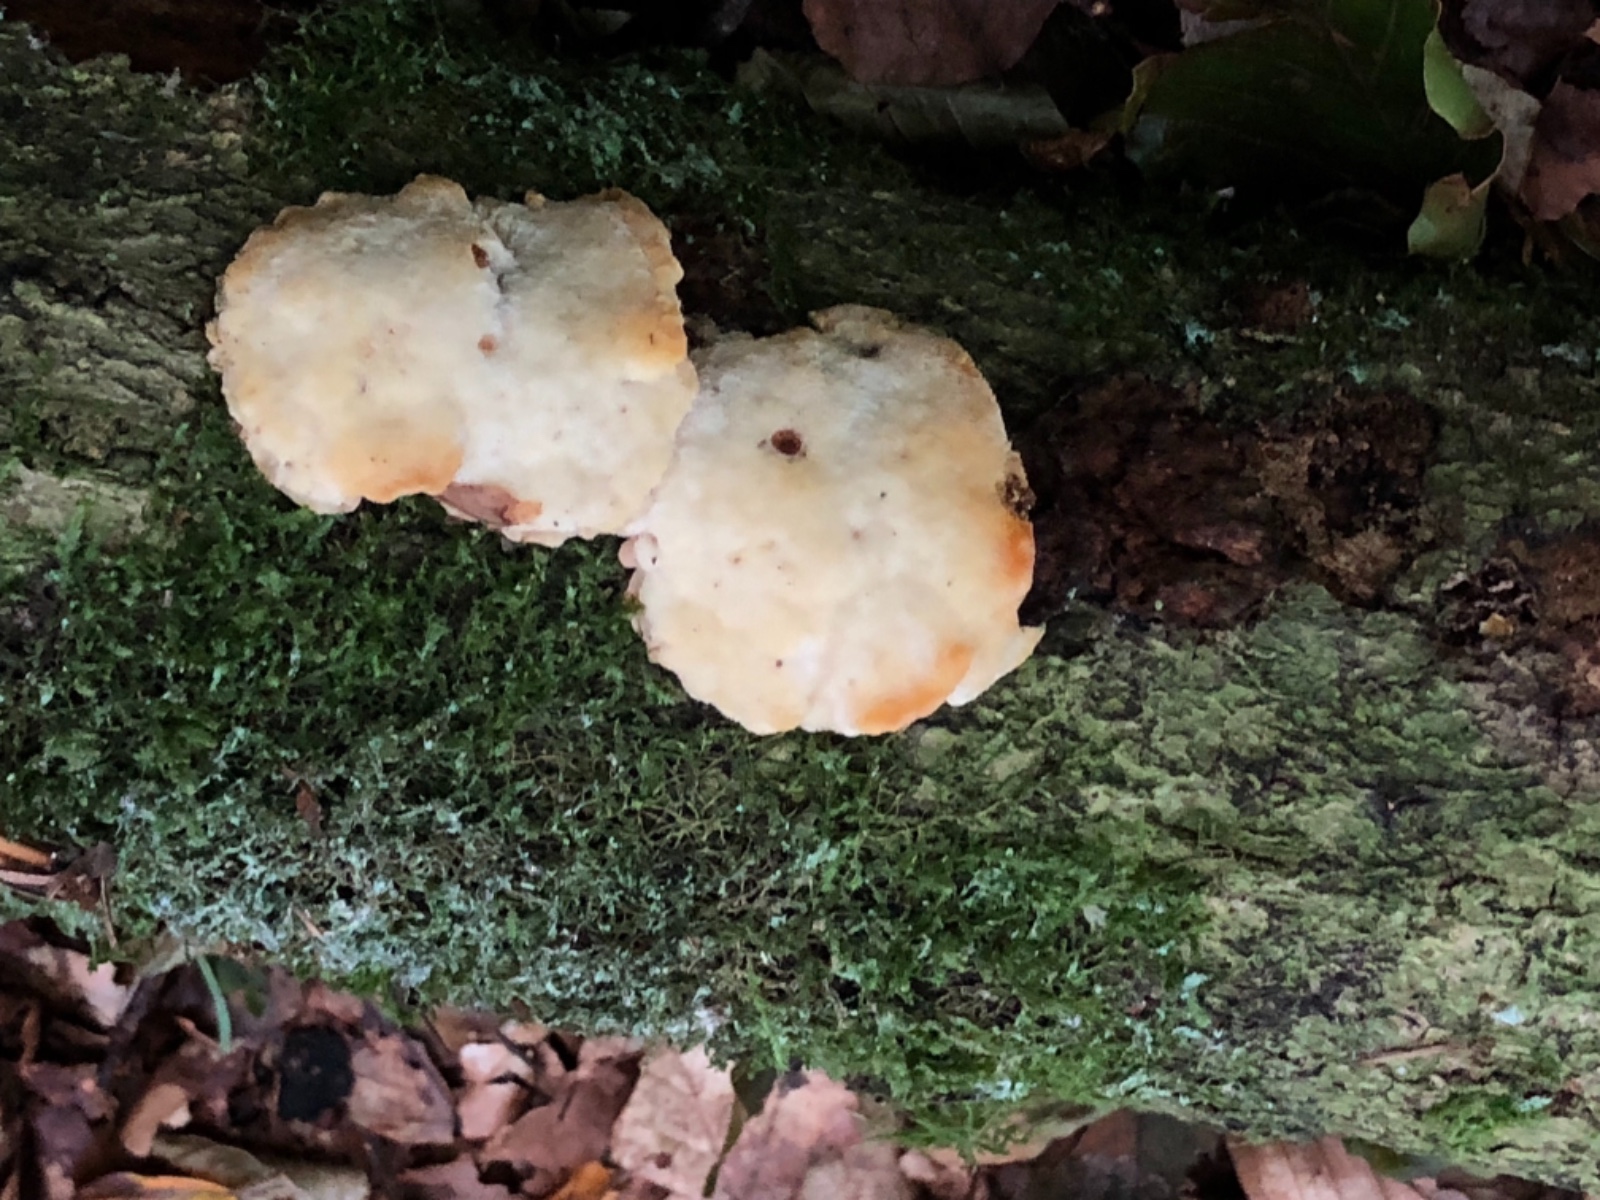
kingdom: Fungi
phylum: Basidiomycota
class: Agaricomycetes
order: Polyporales
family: Steccherinaceae
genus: Antrodiella
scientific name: Antrodiella serpula
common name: gulrandet elastikporesvamp
